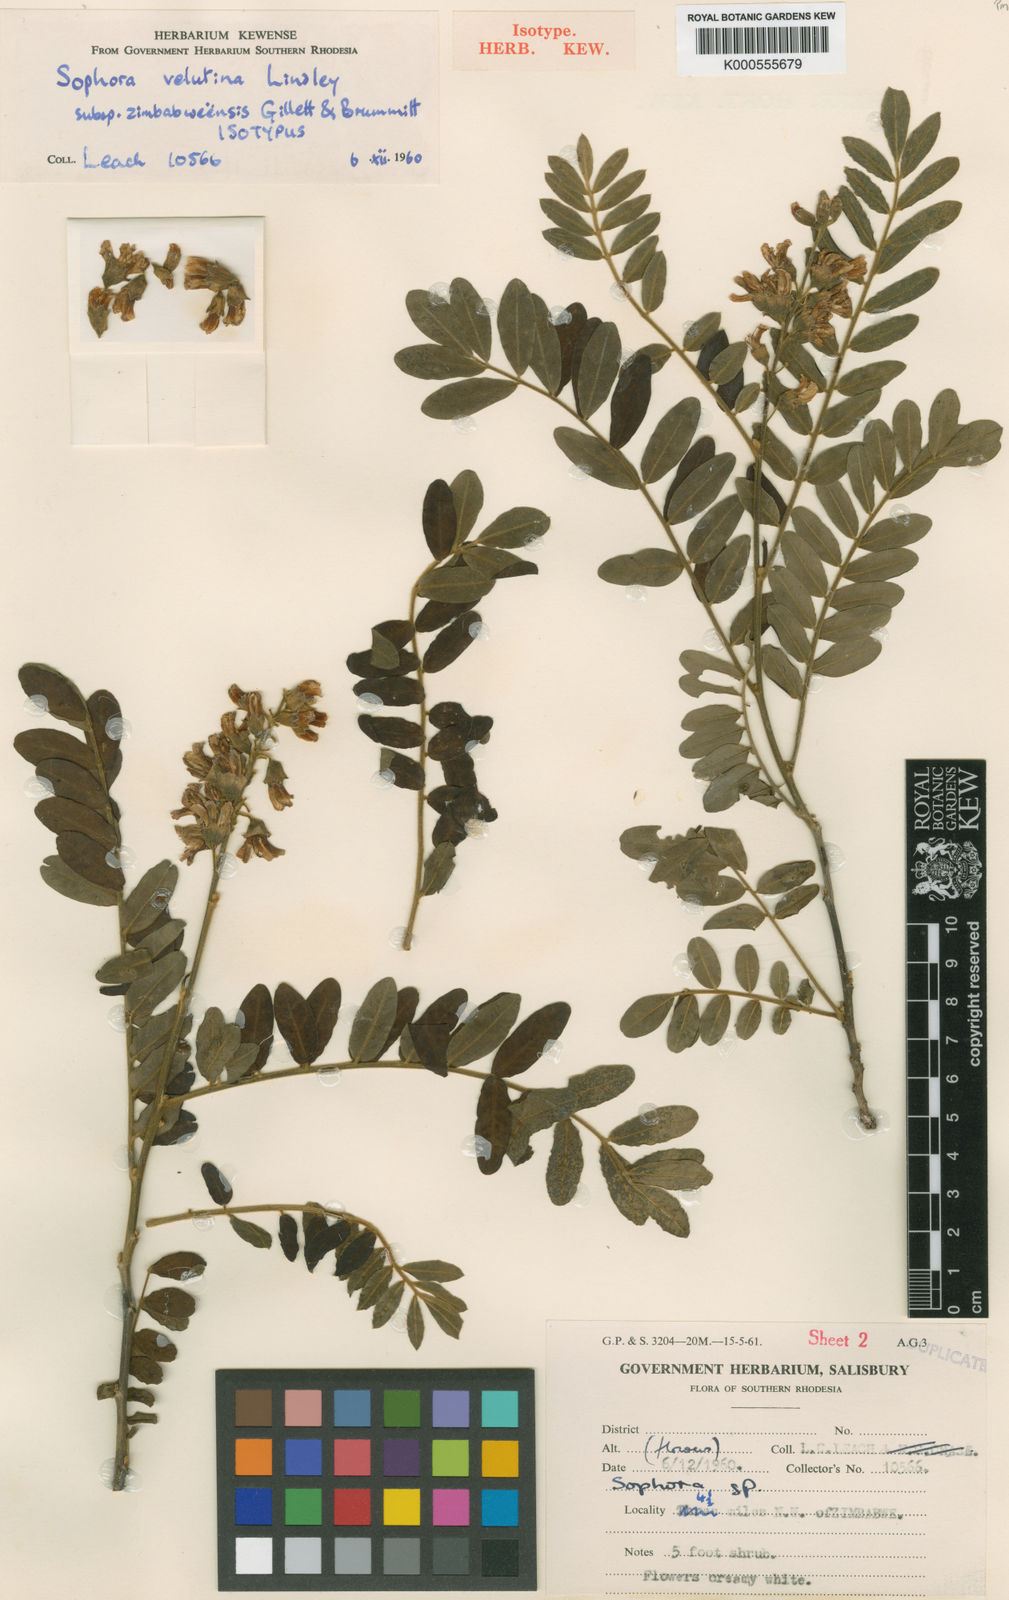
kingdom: Plantae
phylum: Tracheophyta
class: Magnoliopsida
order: Fabales
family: Fabaceae
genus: Sophora
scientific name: Sophora velutina
